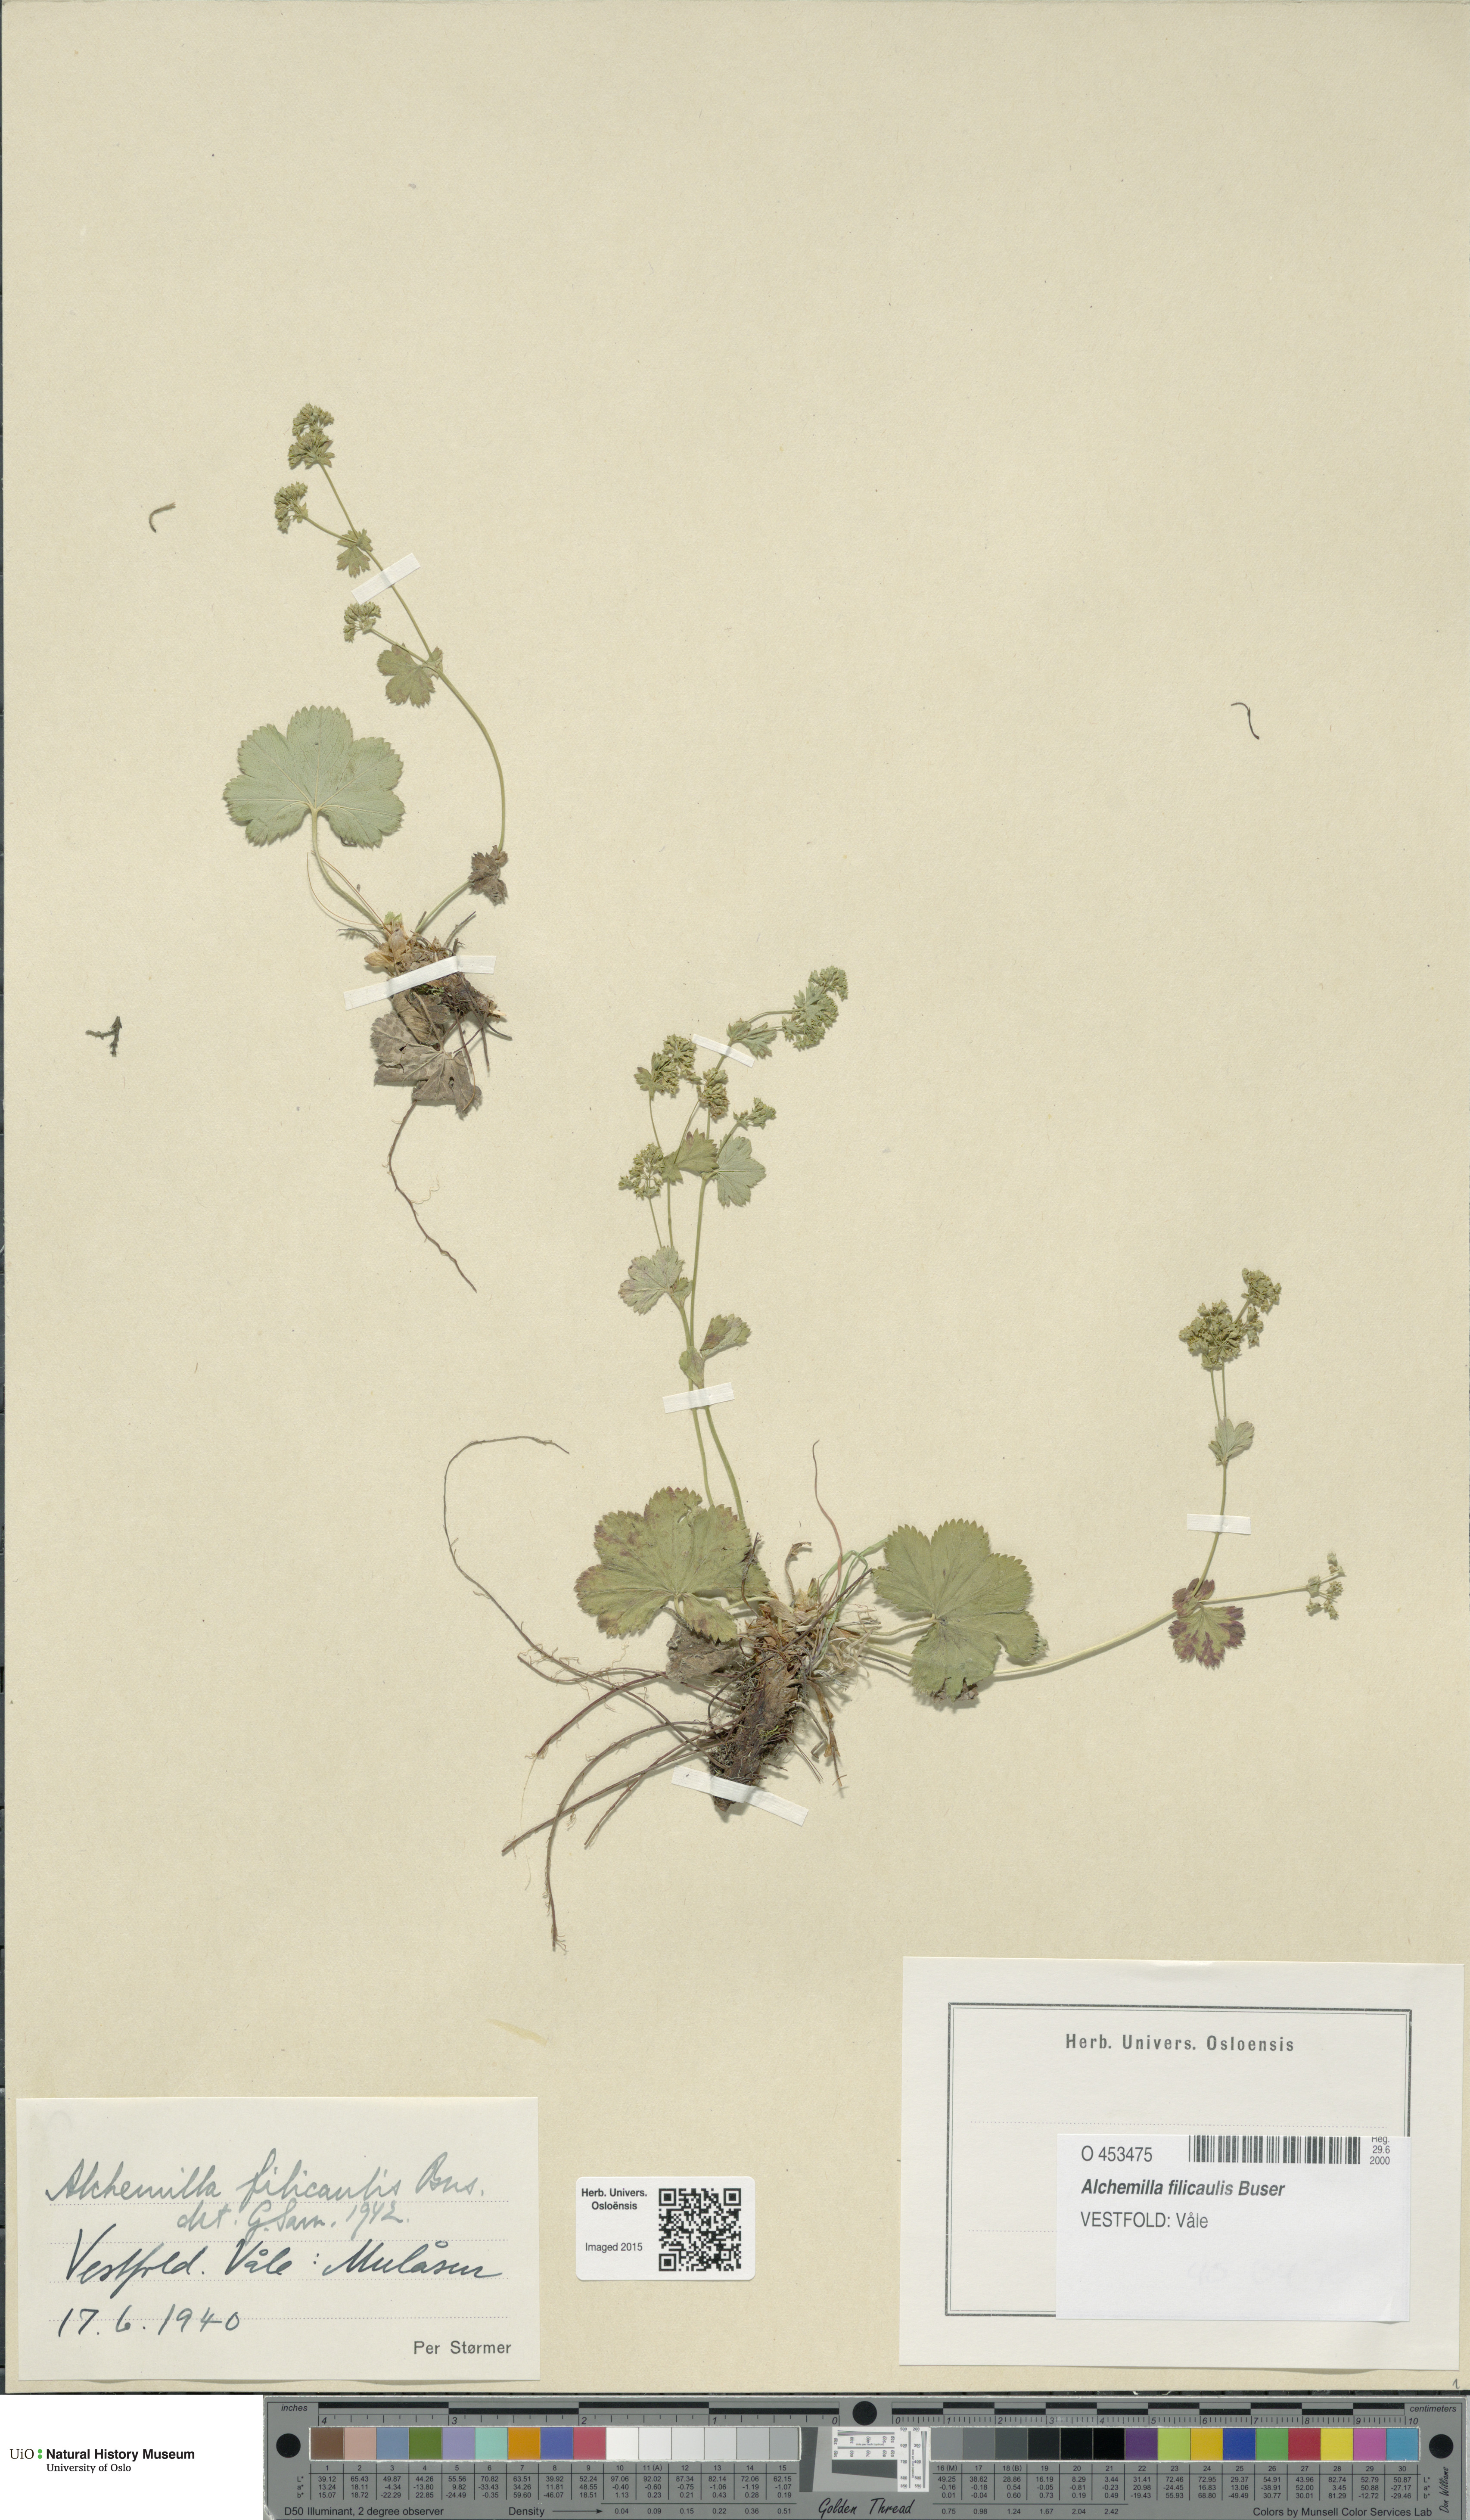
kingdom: Plantae
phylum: Tracheophyta
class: Magnoliopsida
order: Rosales
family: Rosaceae
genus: Alchemilla
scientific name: Alchemilla filicaulis
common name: Hairy lady's-mantle
